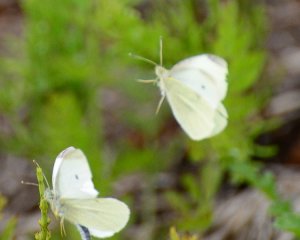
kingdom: Animalia
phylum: Arthropoda
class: Insecta
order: Lepidoptera
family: Pieridae
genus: Pieris
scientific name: Pieris rapae
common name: Cabbage White
